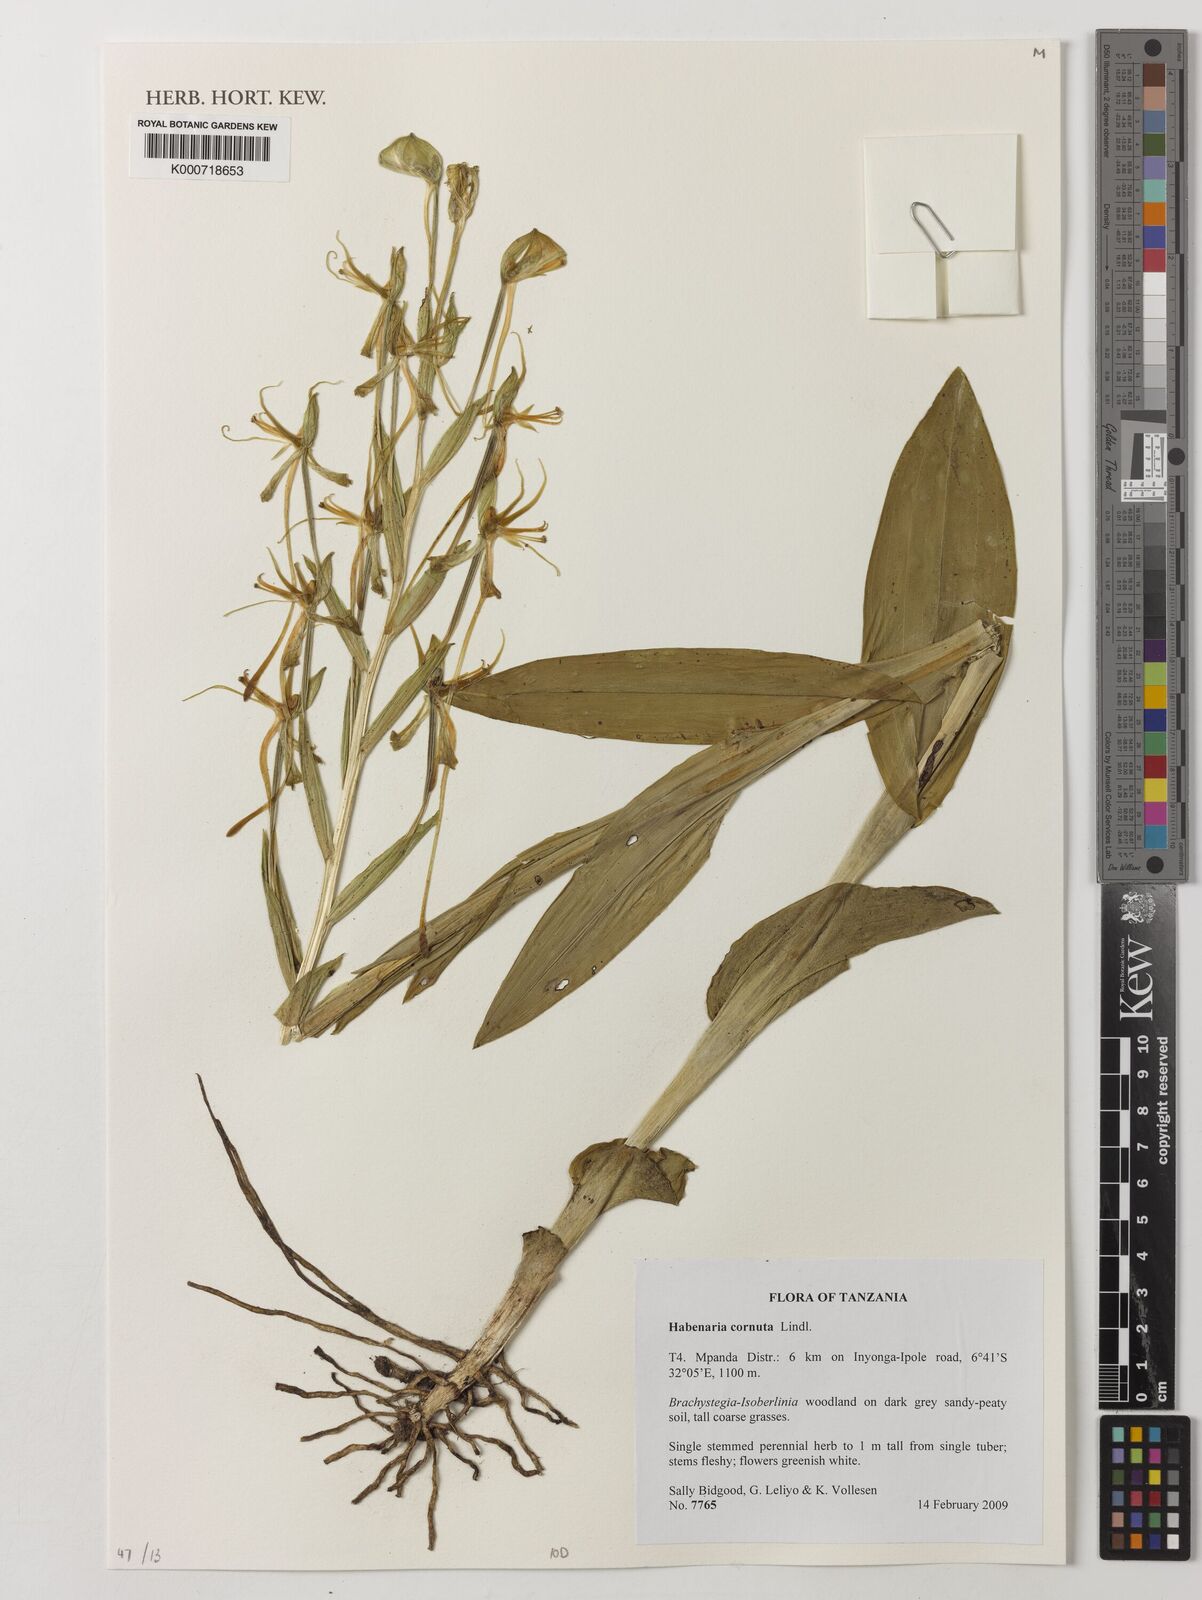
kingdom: Plantae
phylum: Tracheophyta
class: Liliopsida
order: Asparagales
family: Orchidaceae
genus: Habenaria
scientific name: Habenaria cornuta
